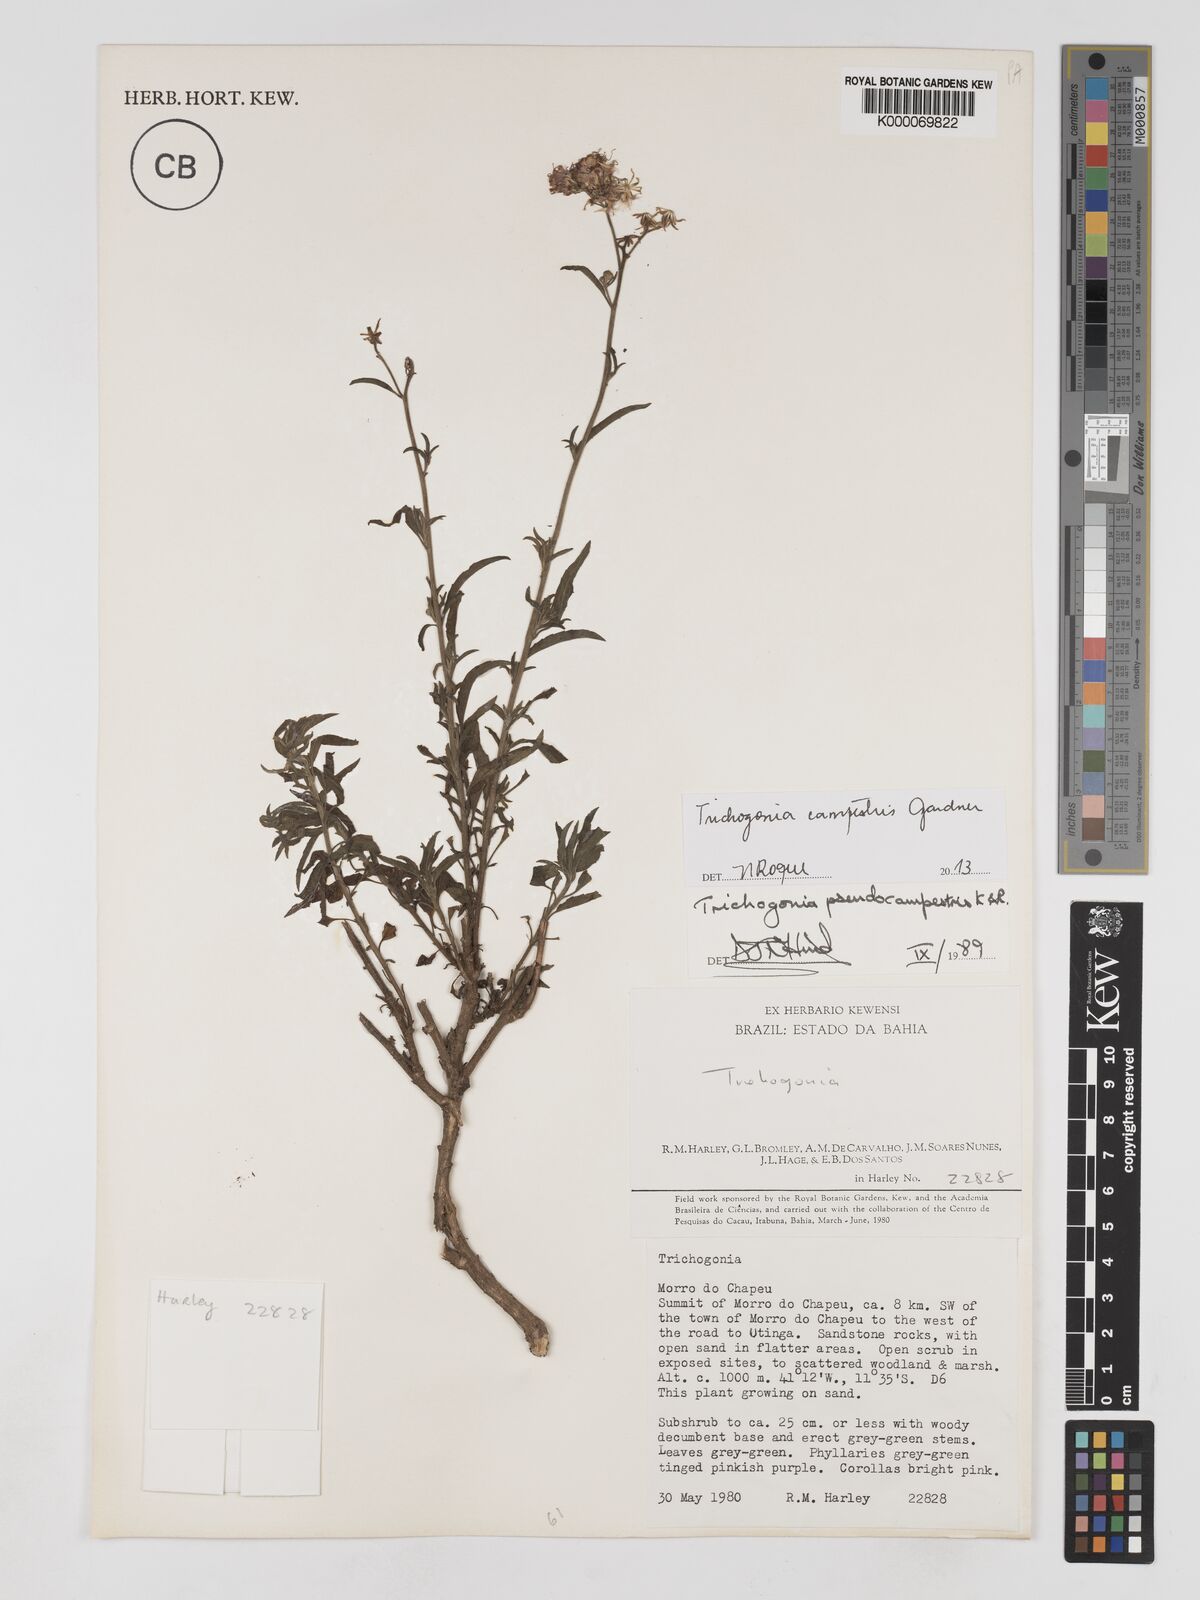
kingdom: Plantae
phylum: Tracheophyta
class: Magnoliopsida
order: Asterales
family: Asteraceae
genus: Trichogonia
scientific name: Trichogonia campestris
